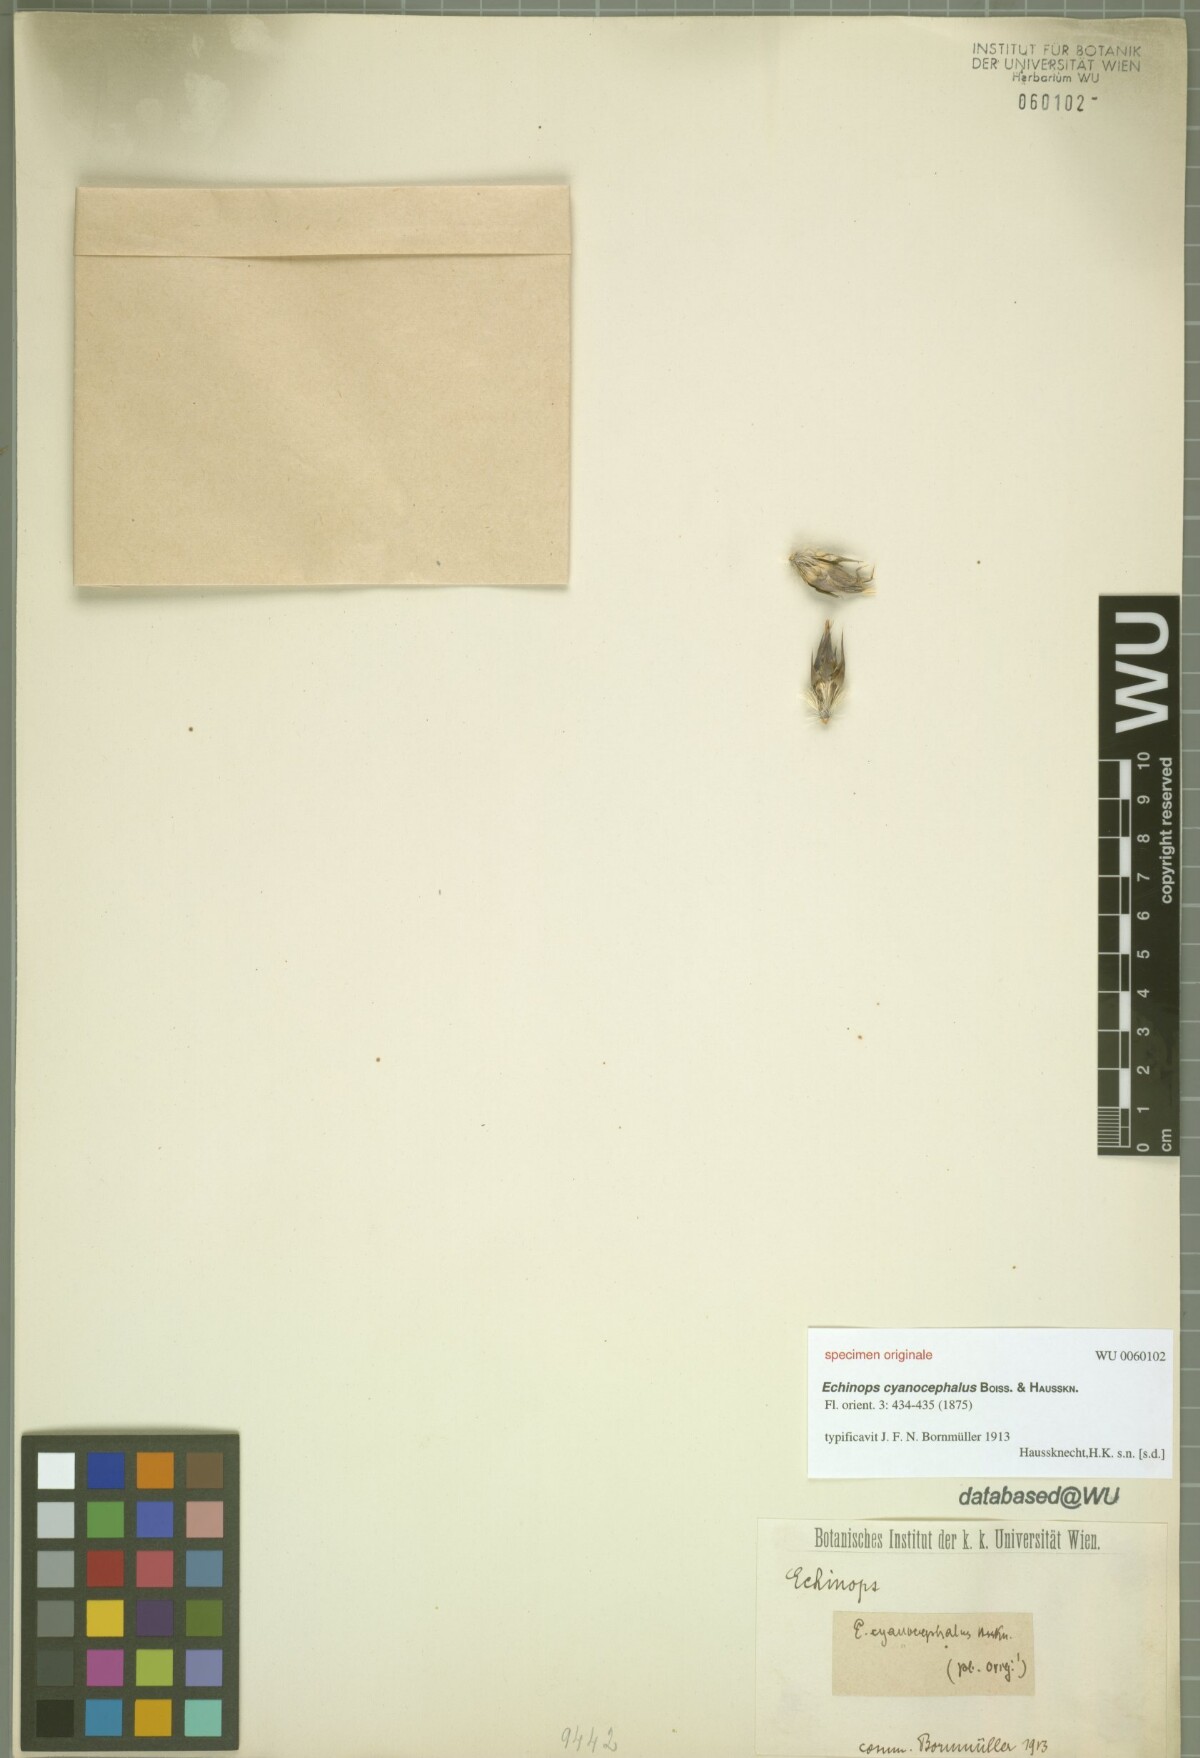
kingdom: Plantae
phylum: Tracheophyta
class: Magnoliopsida
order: Asterales
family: Asteraceae
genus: Echinops
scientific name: Echinops cyanocephalus
